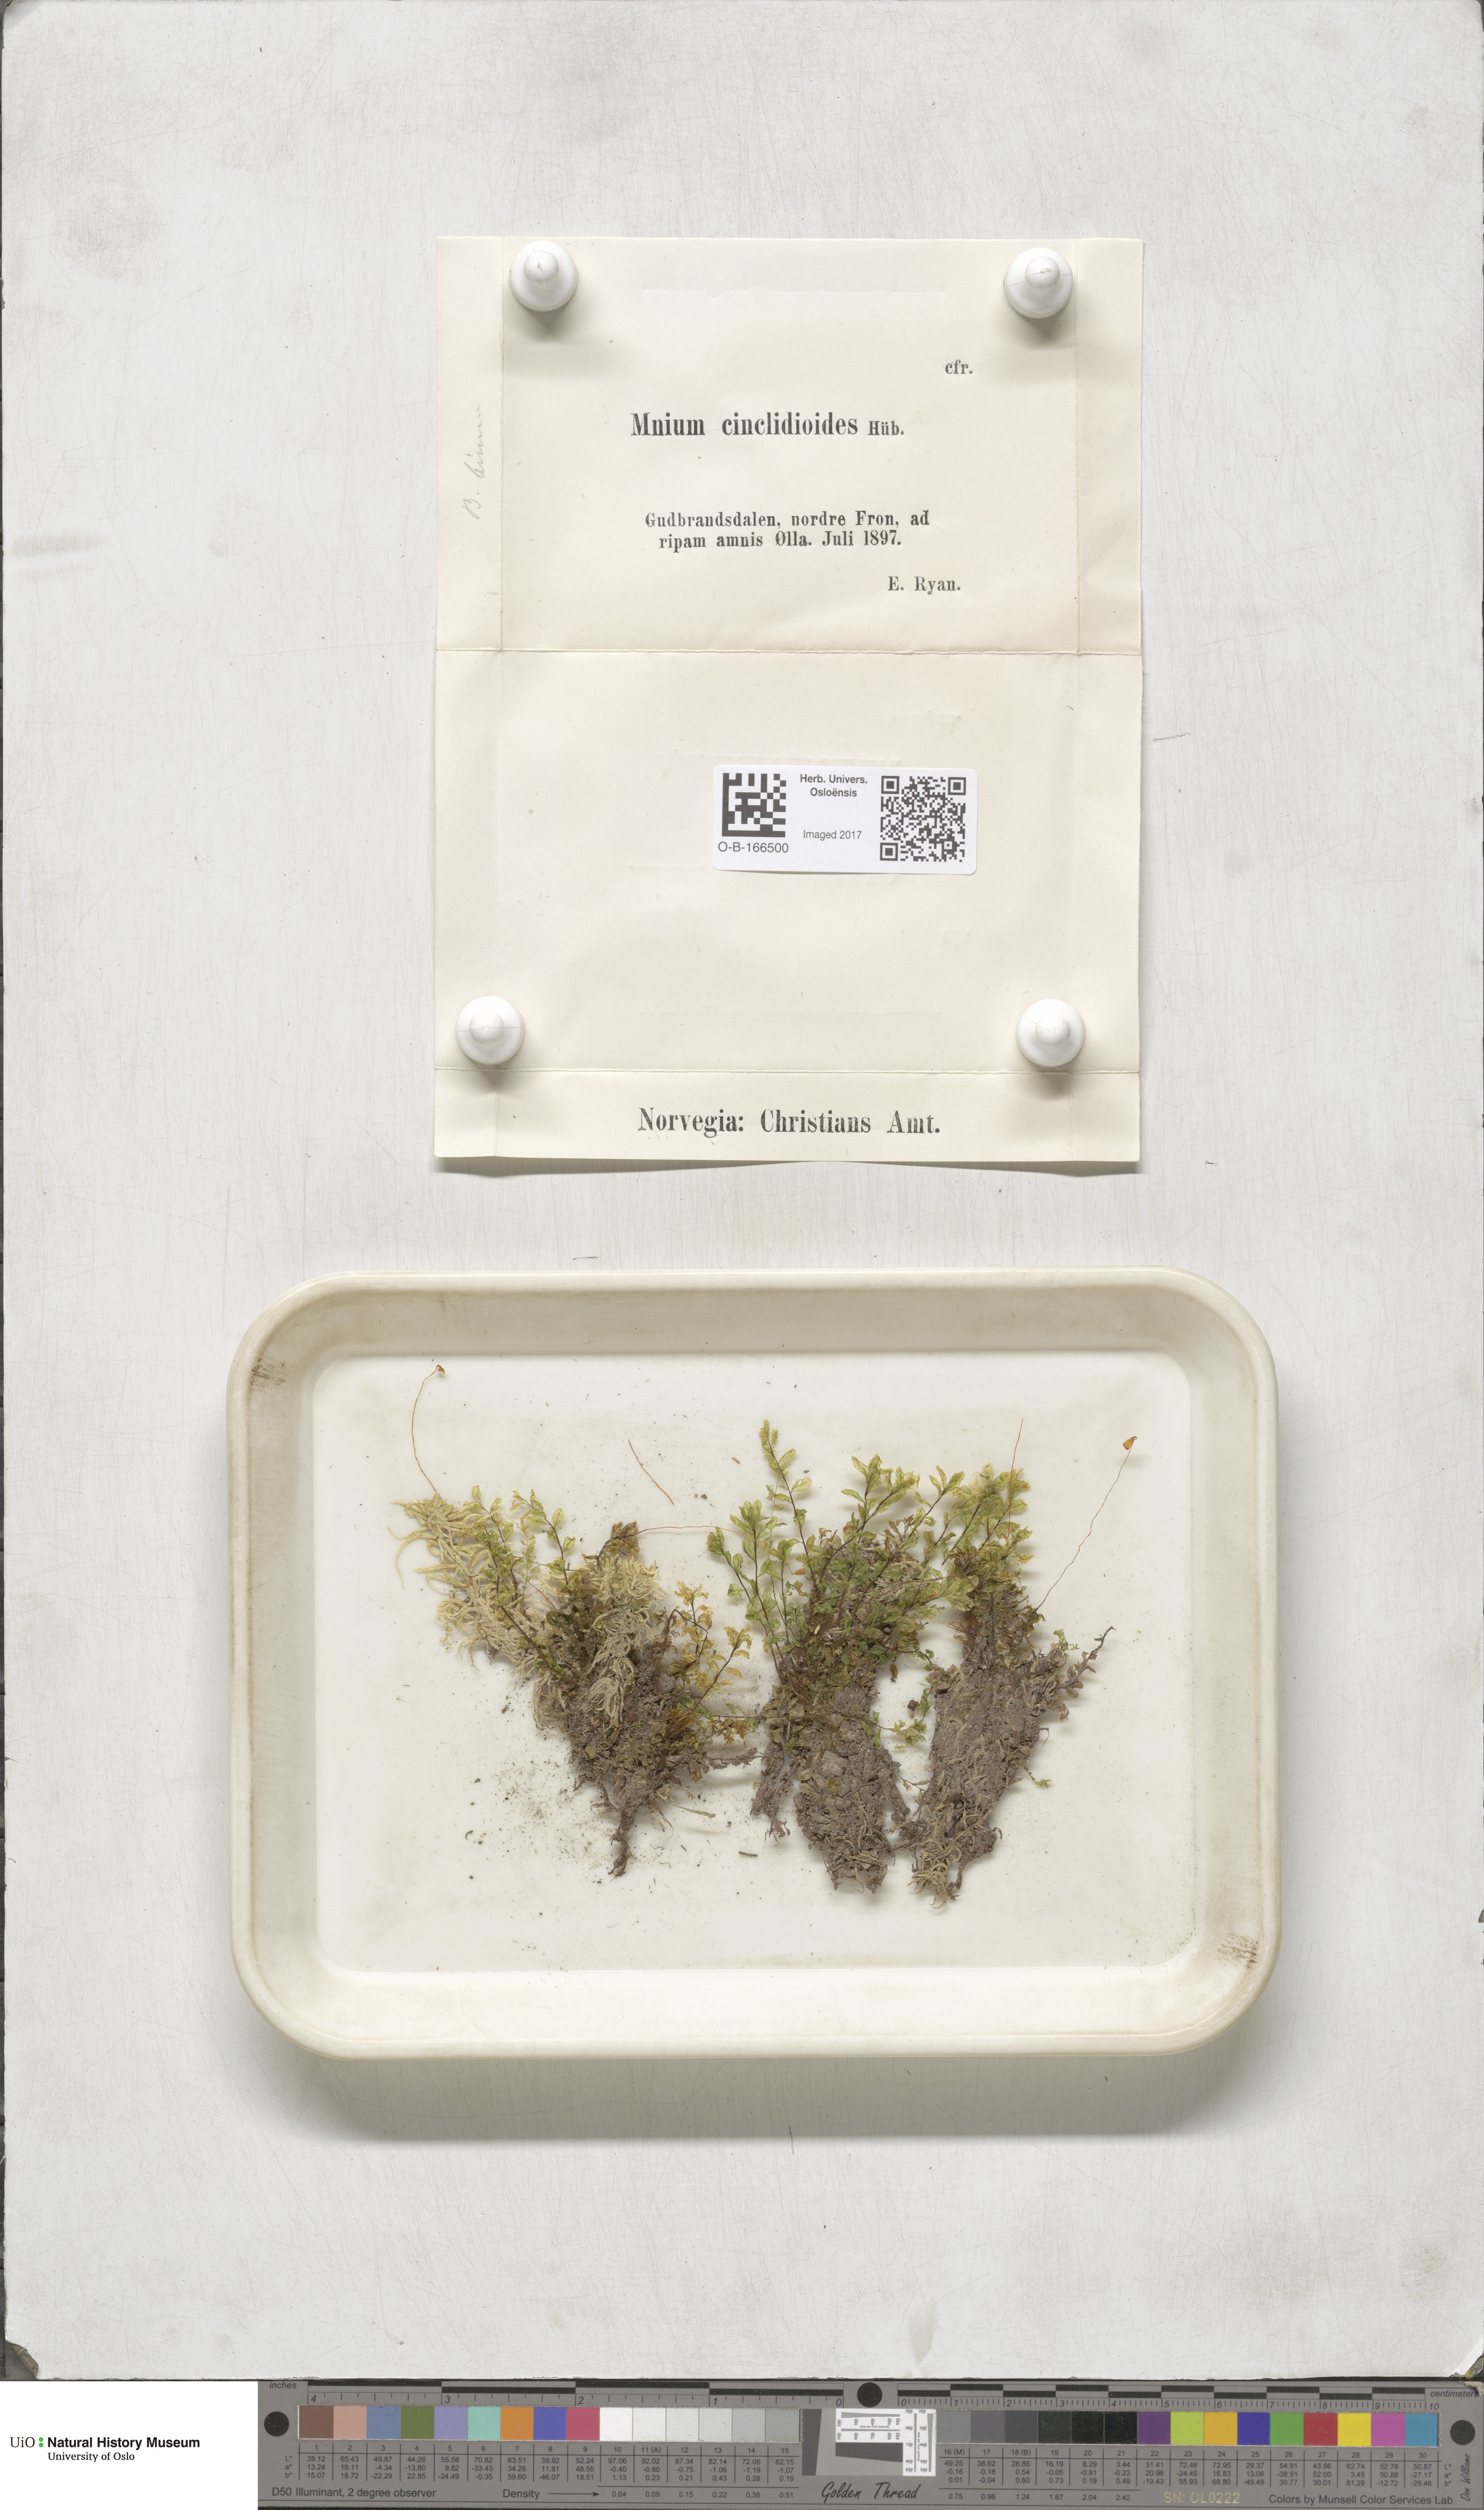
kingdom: Plantae
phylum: Bryophyta
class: Bryopsida
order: Bryales
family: Mniaceae
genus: Pseudobryum
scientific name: Pseudobryum cinclidioides
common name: River thyme moss
